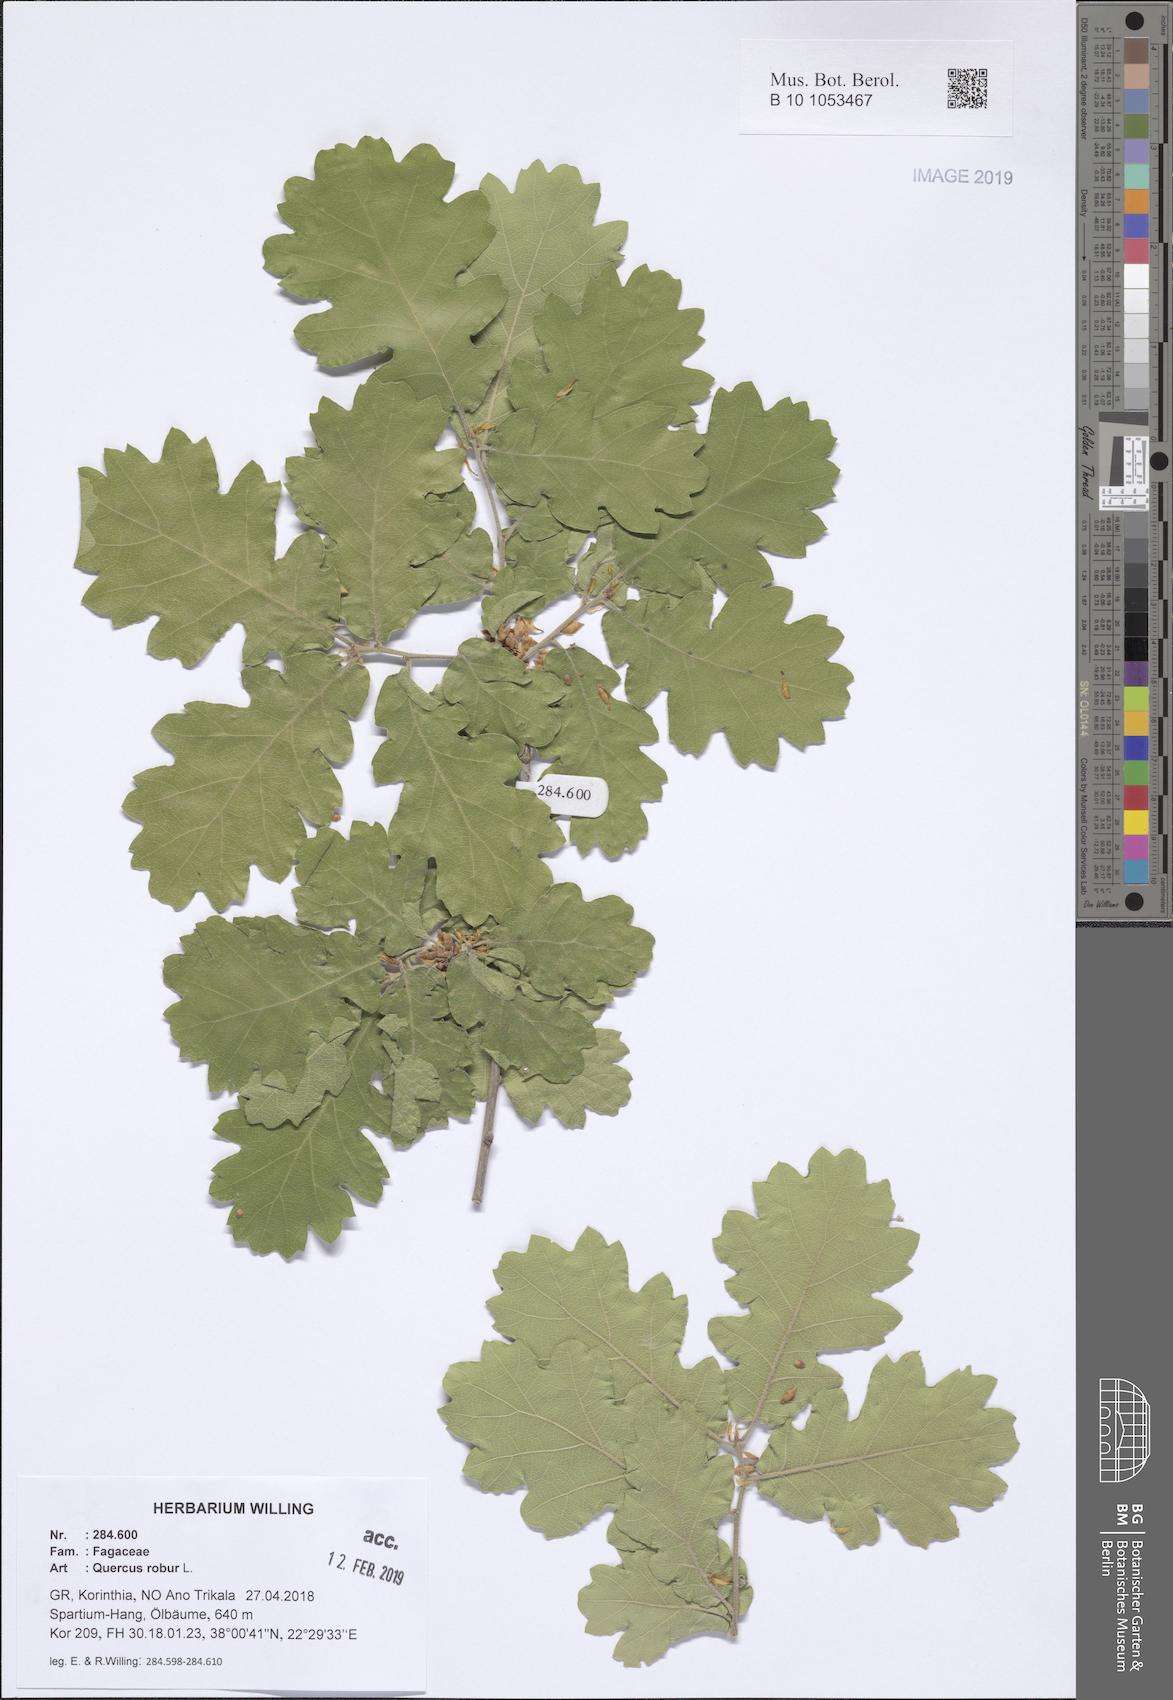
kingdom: Plantae
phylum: Tracheophyta
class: Magnoliopsida
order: Fagales
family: Fagaceae
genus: Quercus
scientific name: Quercus robur
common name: Pedunculate oak
